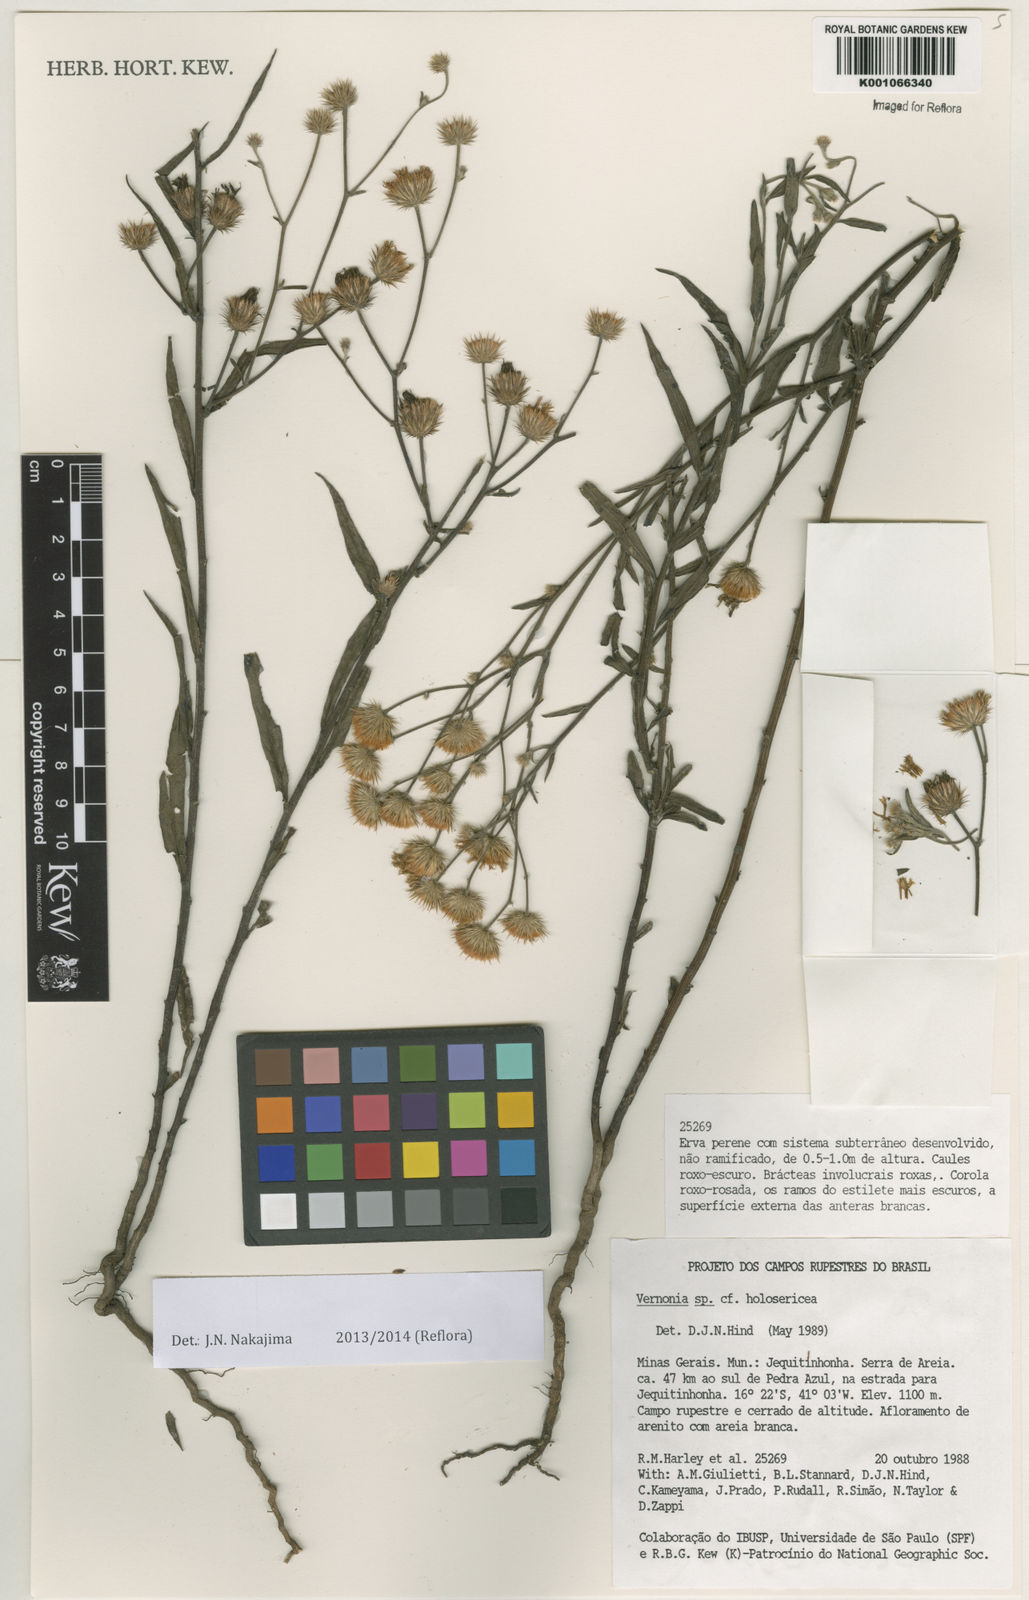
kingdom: Plantae
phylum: Tracheophyta
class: Magnoliopsida
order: Asterales
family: Asteraceae
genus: Echinocoryne
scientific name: Echinocoryne holosericea
